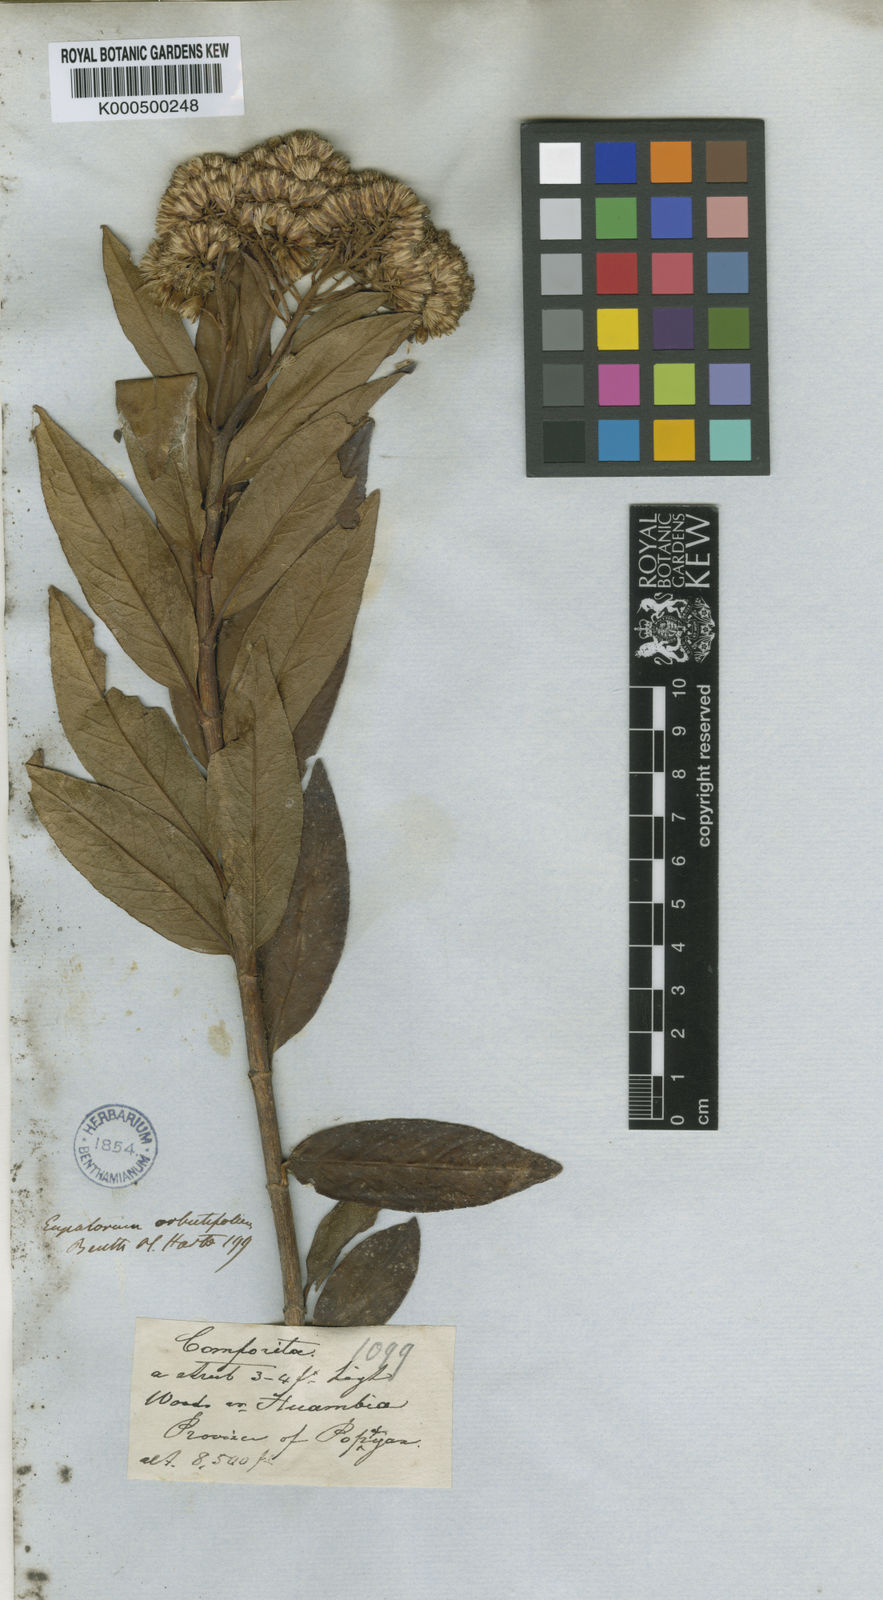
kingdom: Plantae
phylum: Tracheophyta
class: Magnoliopsida
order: Asterales
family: Asteraceae
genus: Ageratina
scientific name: Ageratina arbutifolia
